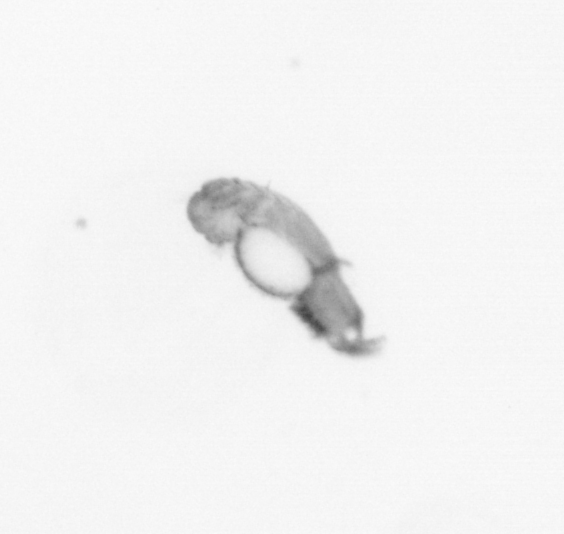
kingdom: Animalia
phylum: Annelida
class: Polychaeta
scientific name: Polychaeta
